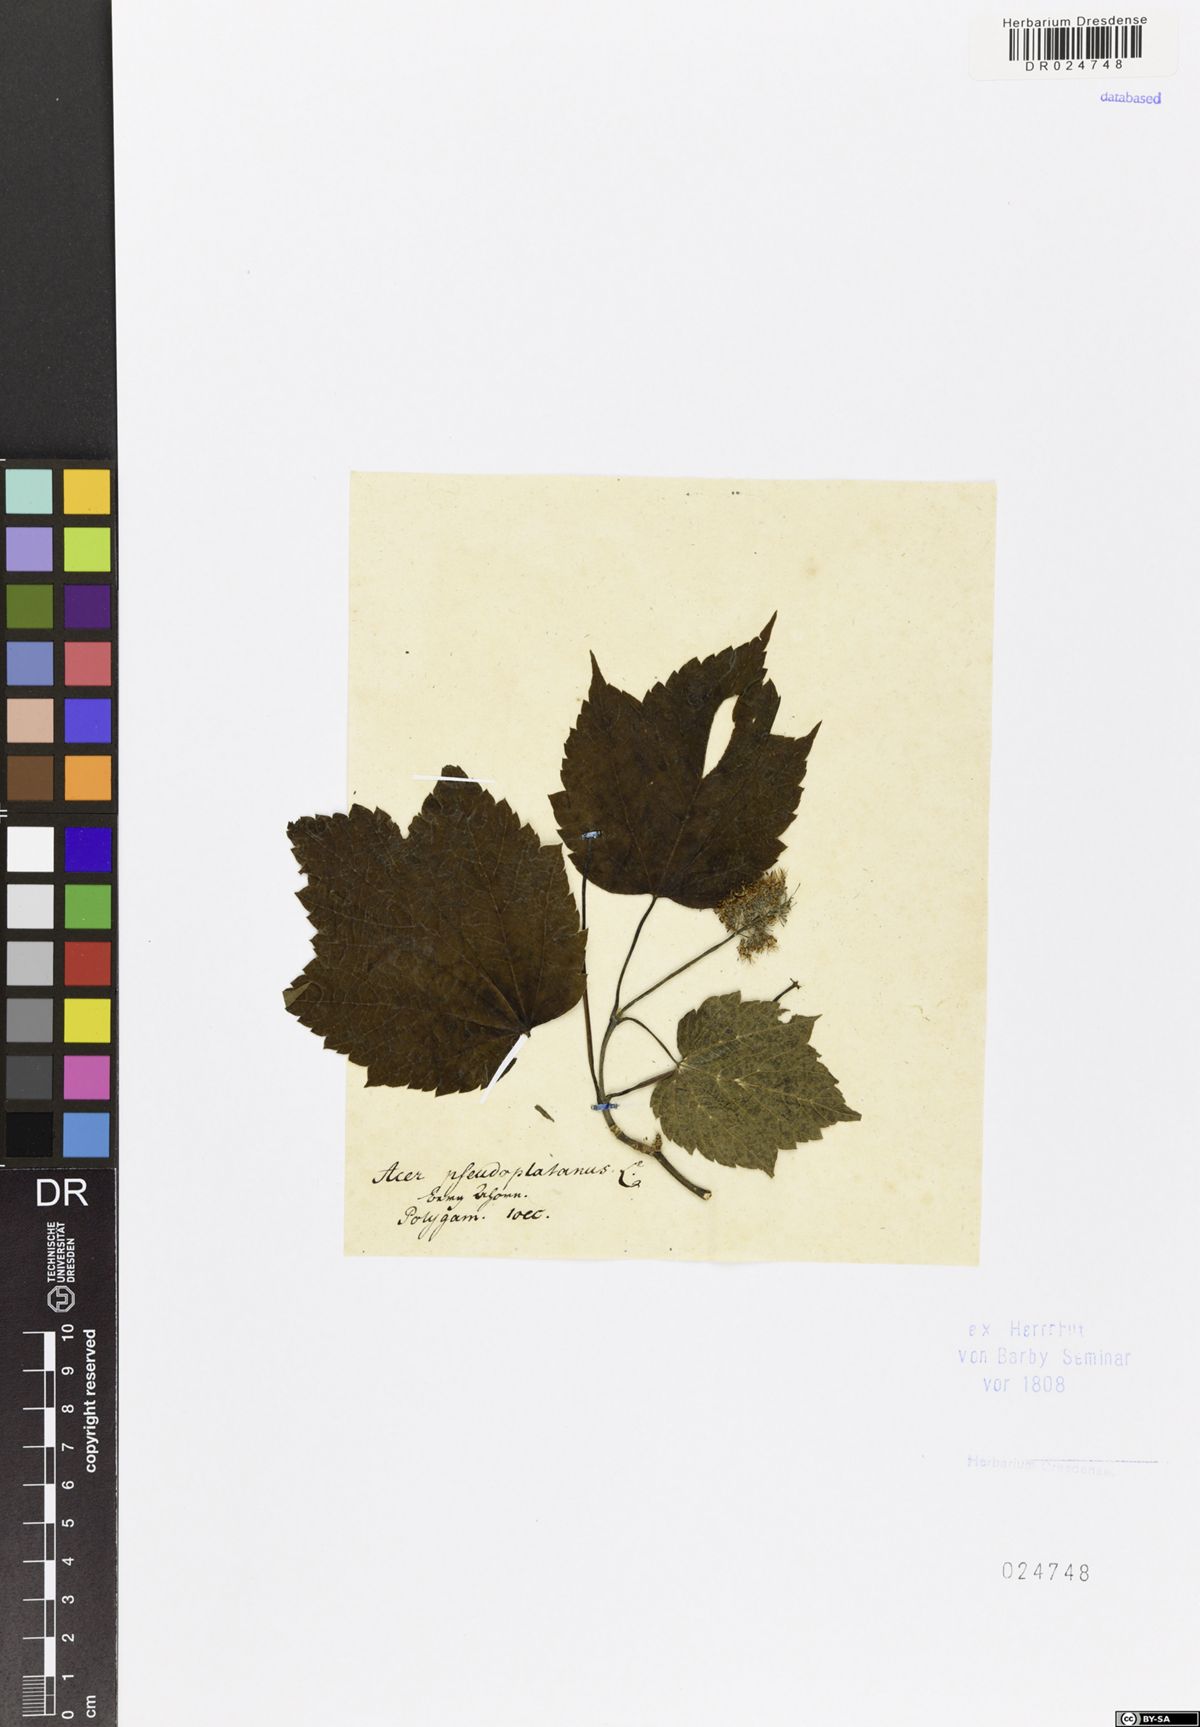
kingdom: Plantae
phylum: Tracheophyta
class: Magnoliopsida
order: Sapindales
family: Sapindaceae
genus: Acer
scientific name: Acer pseudoplatanus
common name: Sycamore
